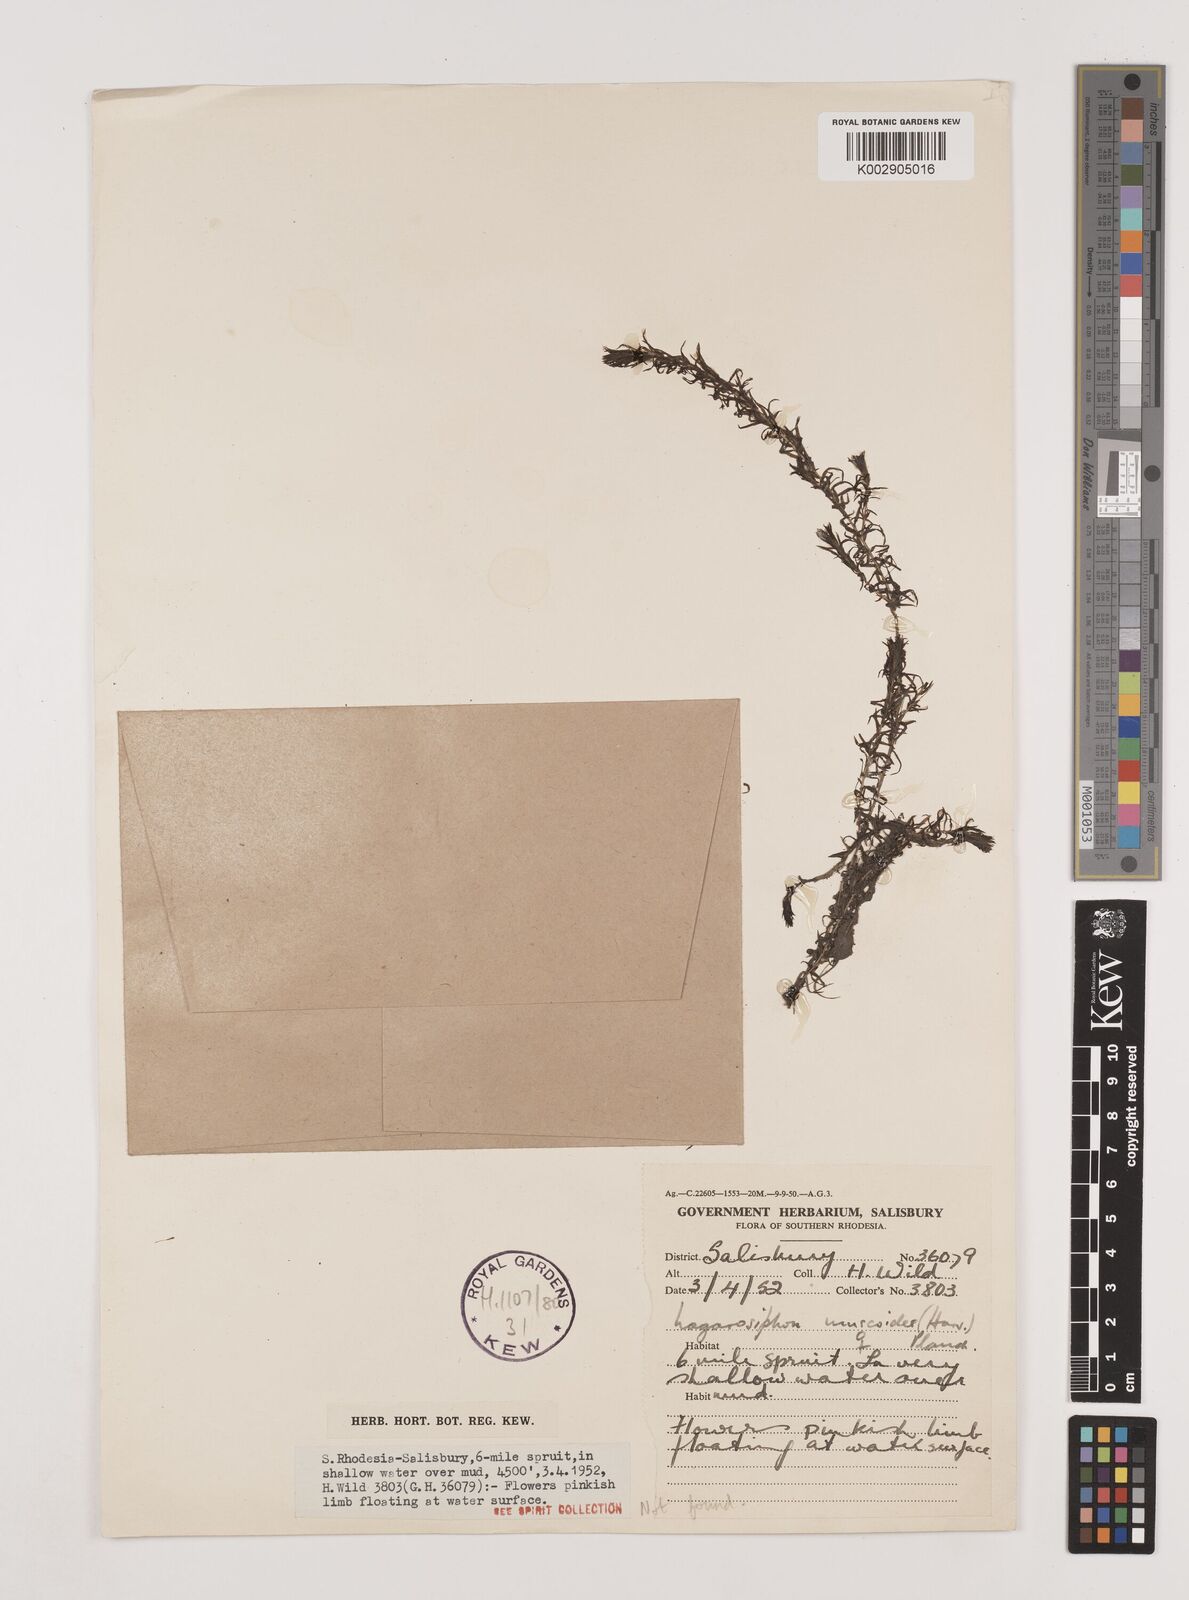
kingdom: Plantae
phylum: Tracheophyta
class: Liliopsida
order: Alismatales
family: Hydrocharitaceae
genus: Lagarosiphon
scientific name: Lagarosiphon muscoides
